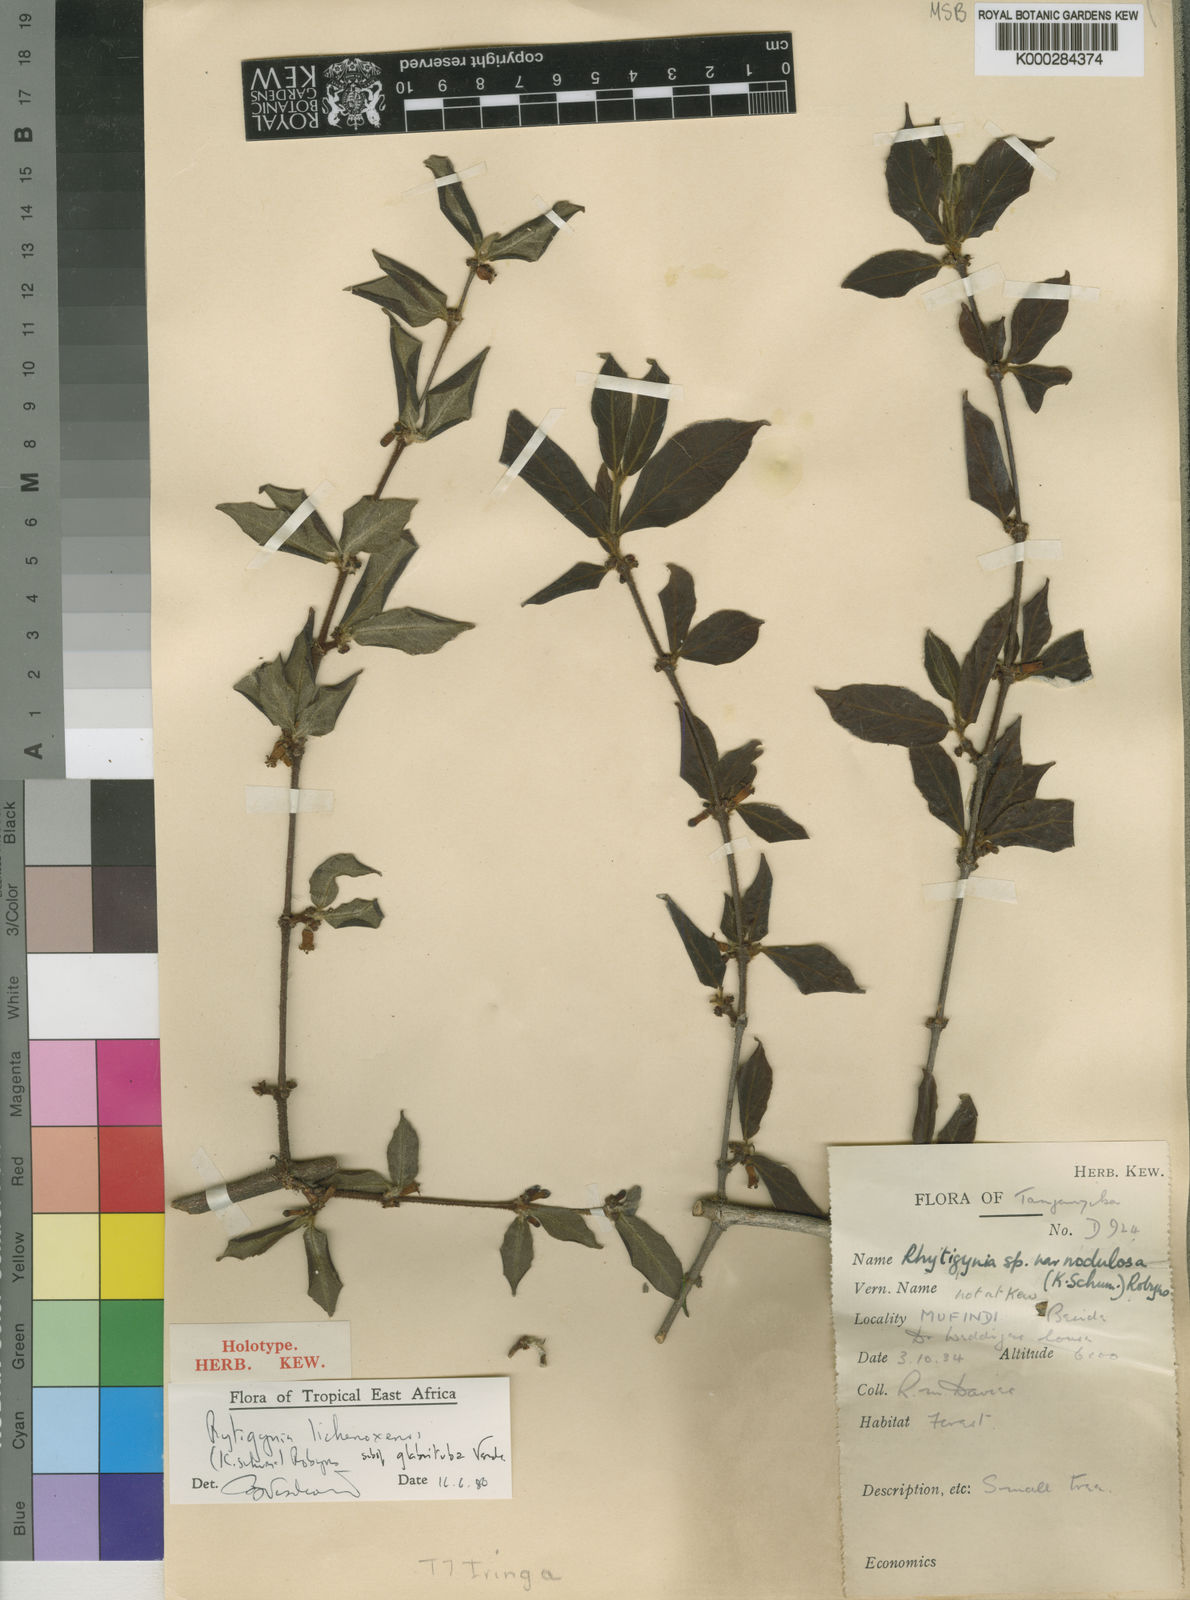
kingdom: Plantae
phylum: Tracheophyta
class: Magnoliopsida
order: Gentianales
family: Rubiaceae
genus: Rytigynia
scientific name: Rytigynia lichenoxenos
